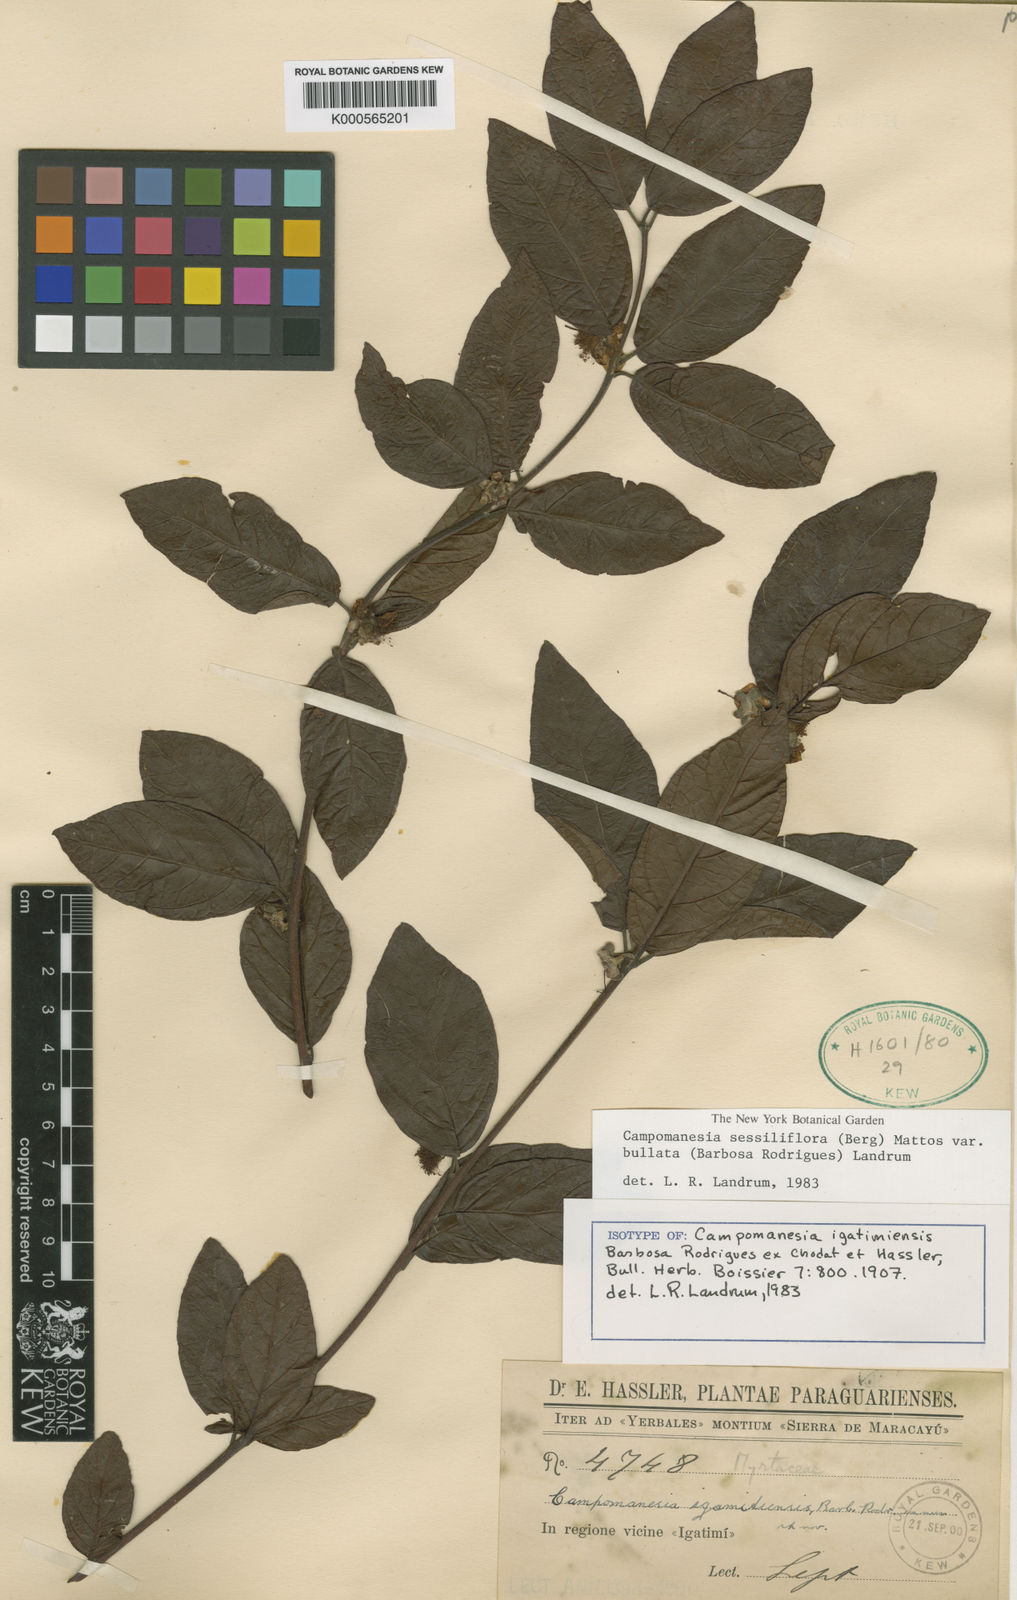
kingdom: Plantae
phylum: Tracheophyta
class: Magnoliopsida
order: Myrtales
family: Myrtaceae
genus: Campomanesia
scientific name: Campomanesia sessiliflora
